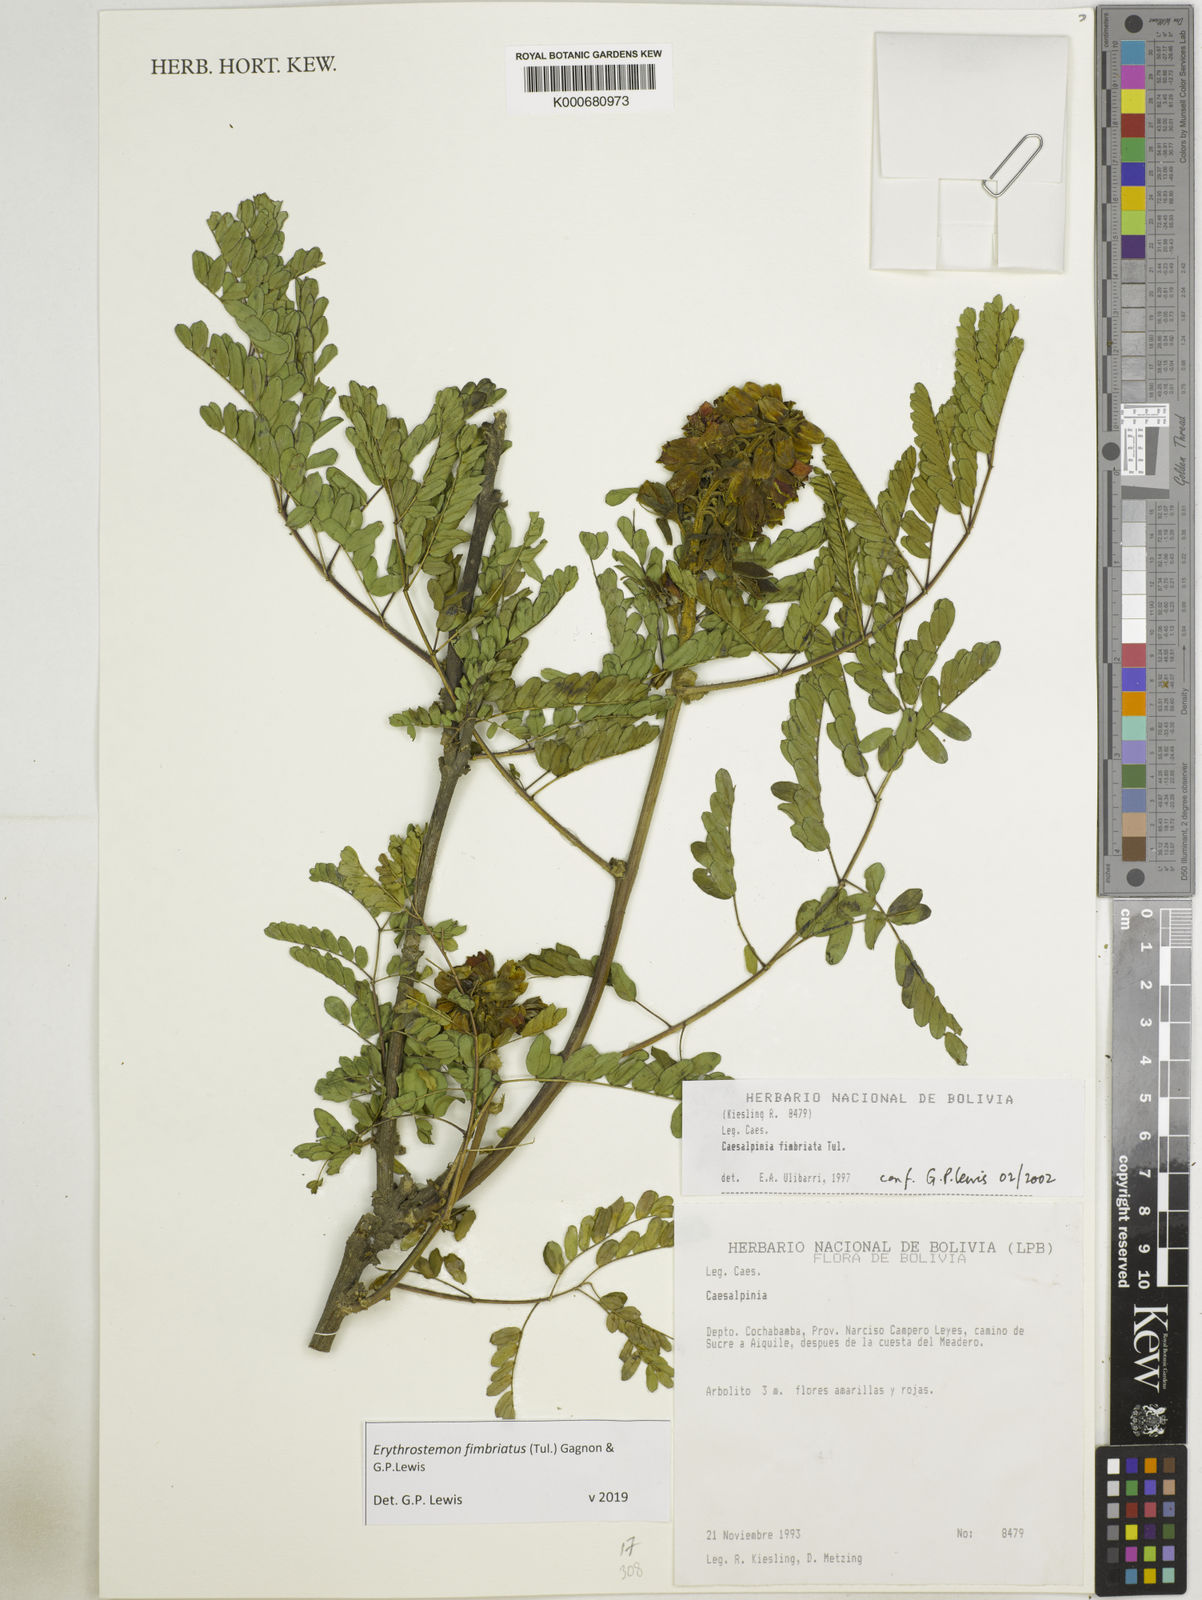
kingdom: Plantae
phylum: Tracheophyta
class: Magnoliopsida
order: Fabales
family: Fabaceae
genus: Erythrostemon
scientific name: Erythrostemon fimbriatus
